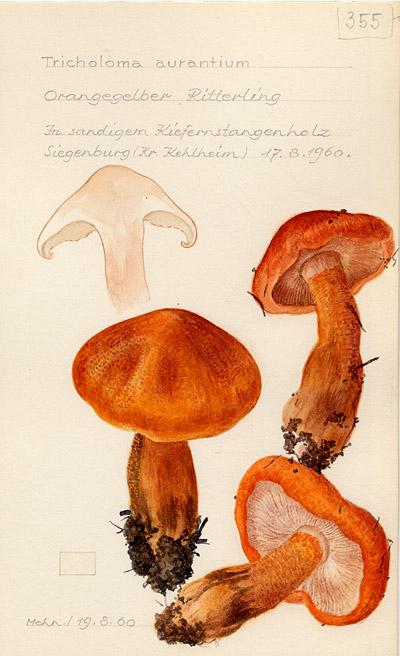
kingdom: Fungi
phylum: Basidiomycota
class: Agaricomycetes
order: Agaricales
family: Tricholomataceae
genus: Tricholoma
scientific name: Tricholoma aurantium
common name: Orange knight
